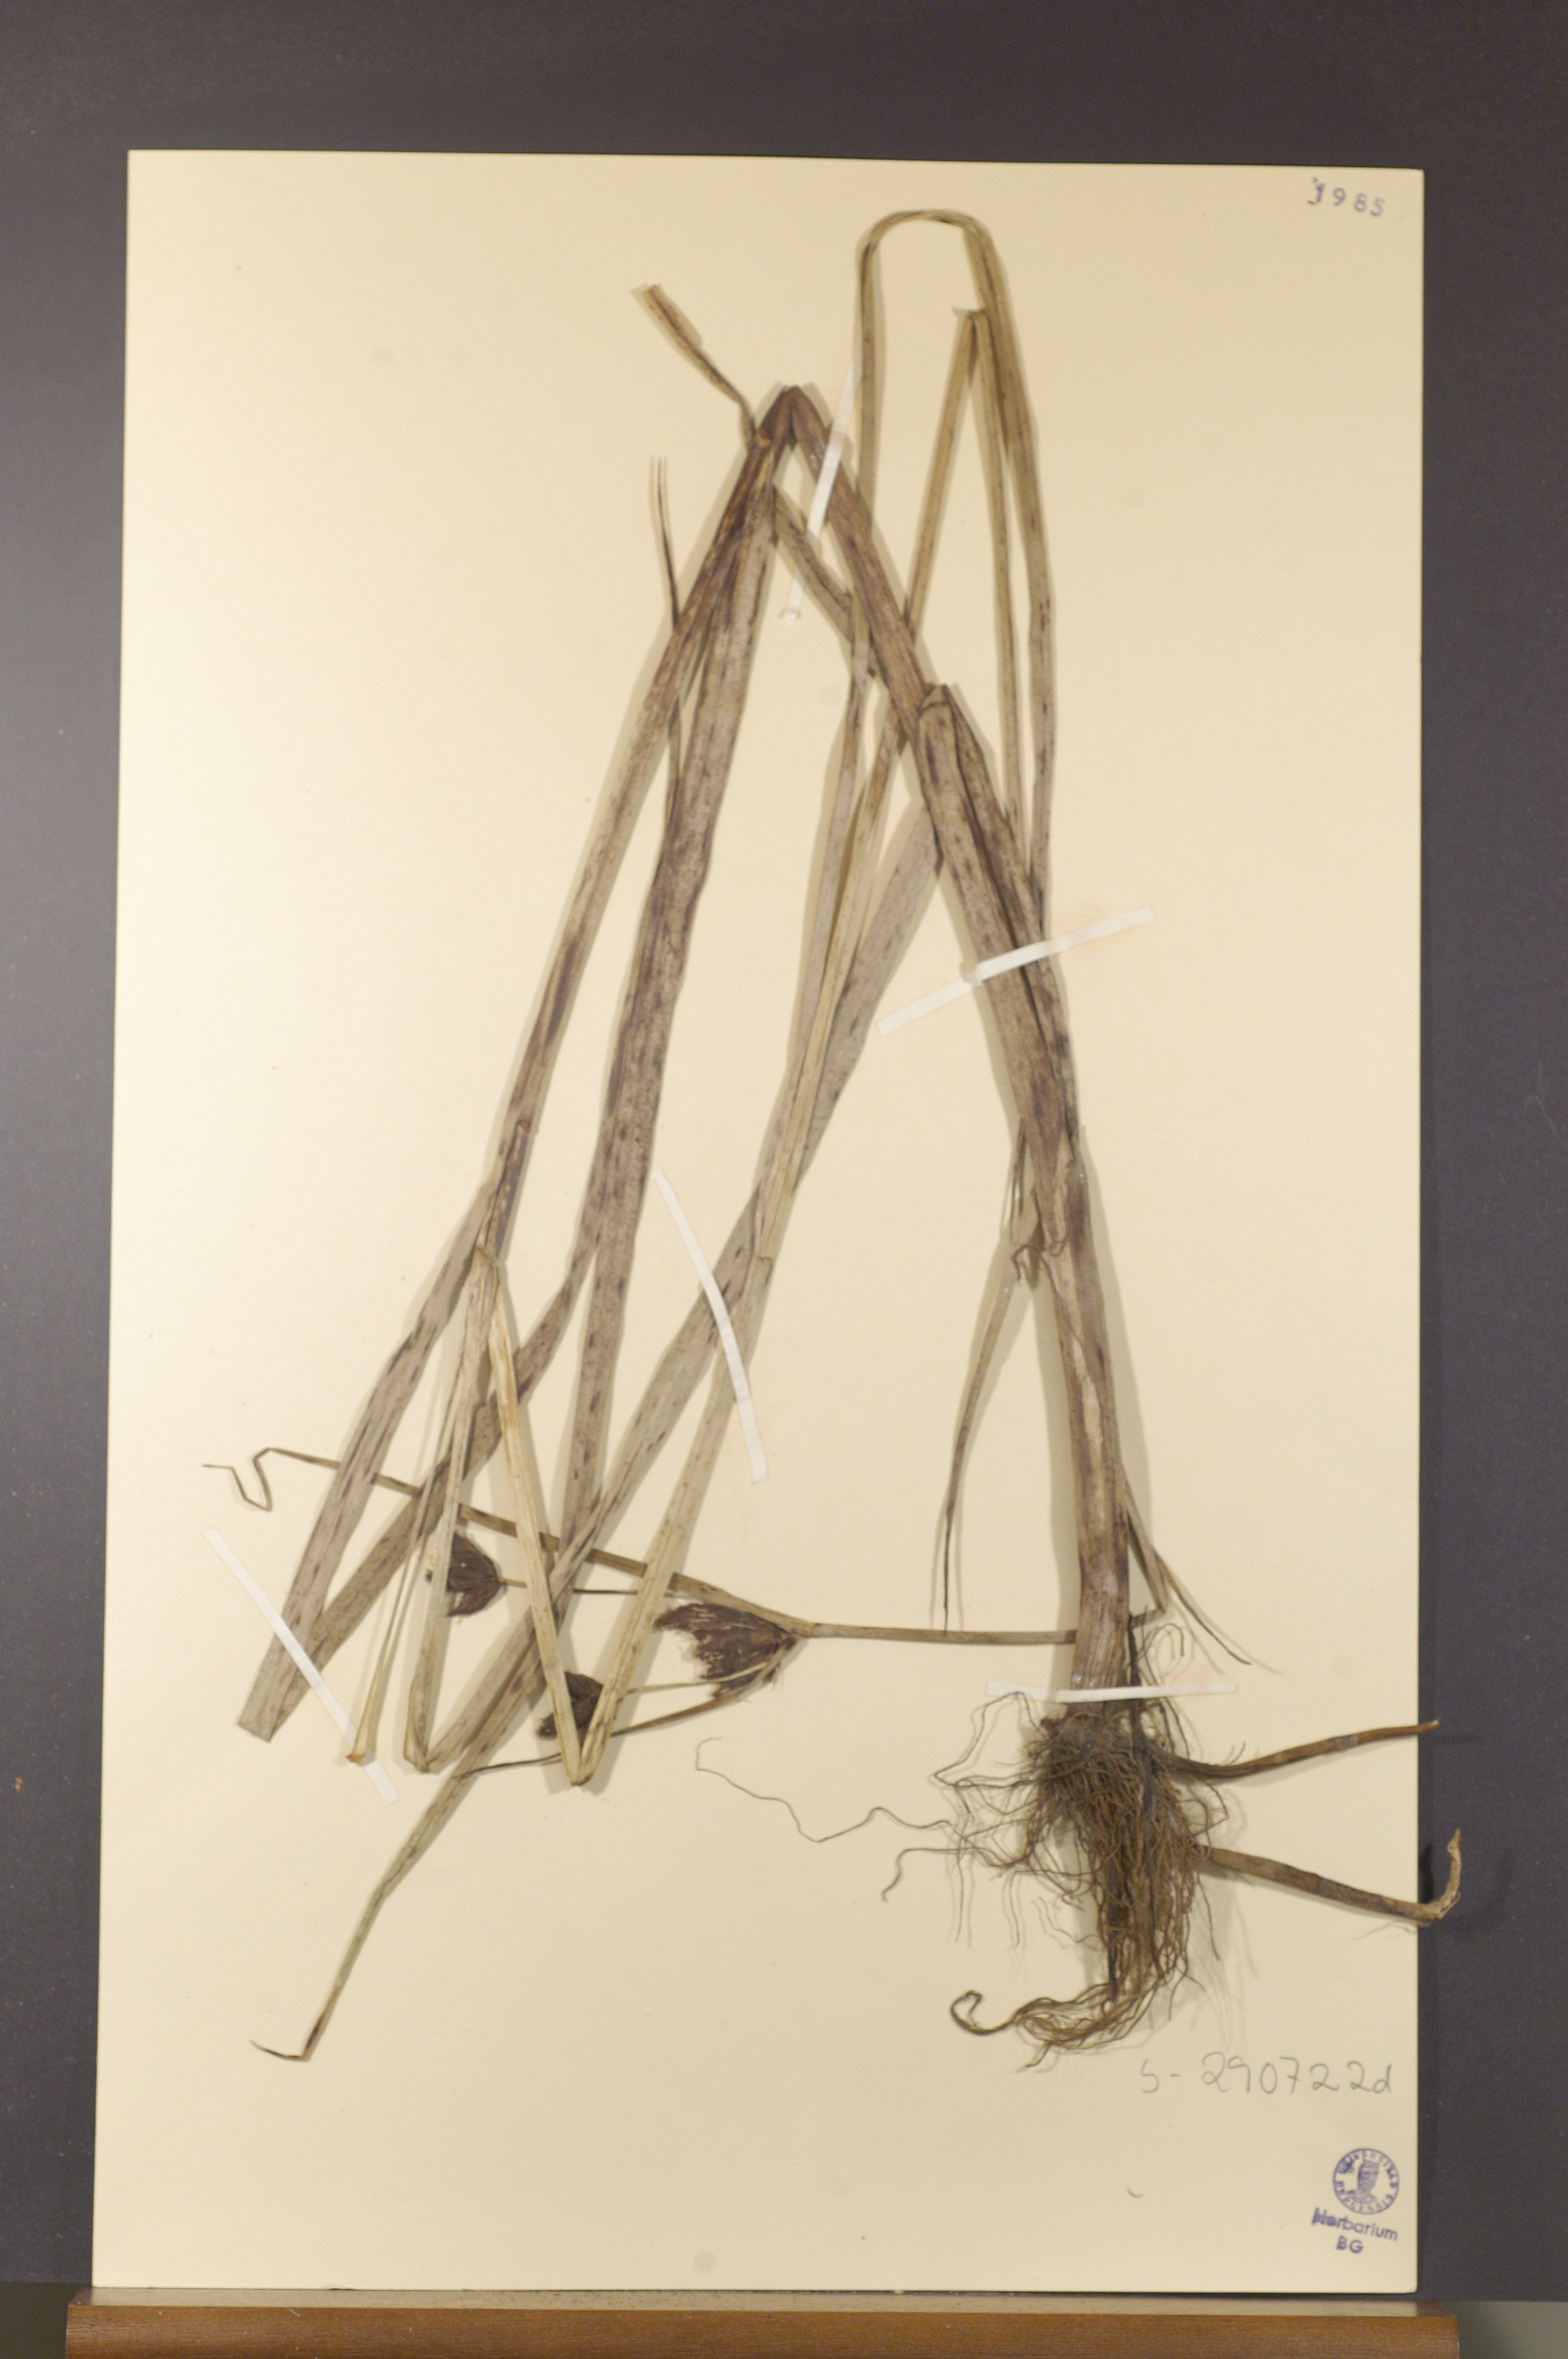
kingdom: Plantae
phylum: Tracheophyta
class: Liliopsida
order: Poales
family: Cyperaceae
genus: Bolboschoenus
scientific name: Bolboschoenus maritimus
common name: Sea club-rush
